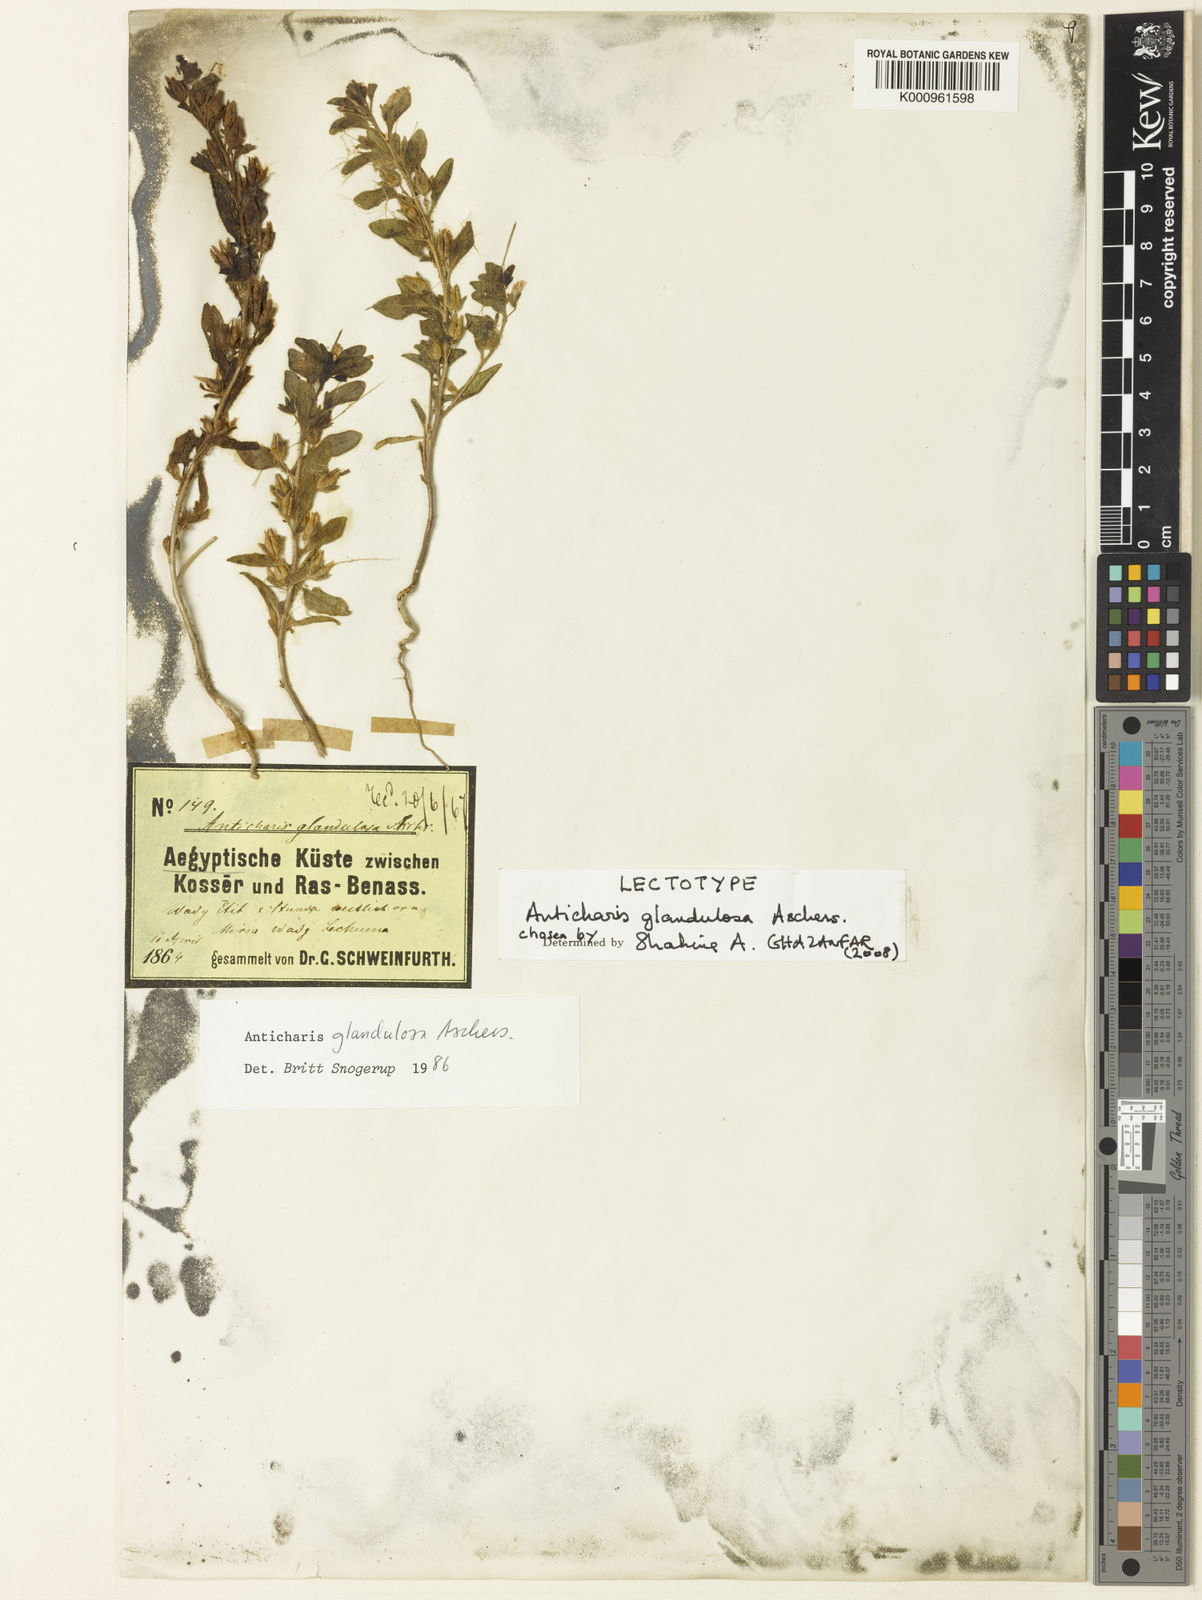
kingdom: Plantae
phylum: Tracheophyta
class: Magnoliopsida
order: Lamiales
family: Scrophulariaceae
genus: Anticharis
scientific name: Anticharis glandulosa
